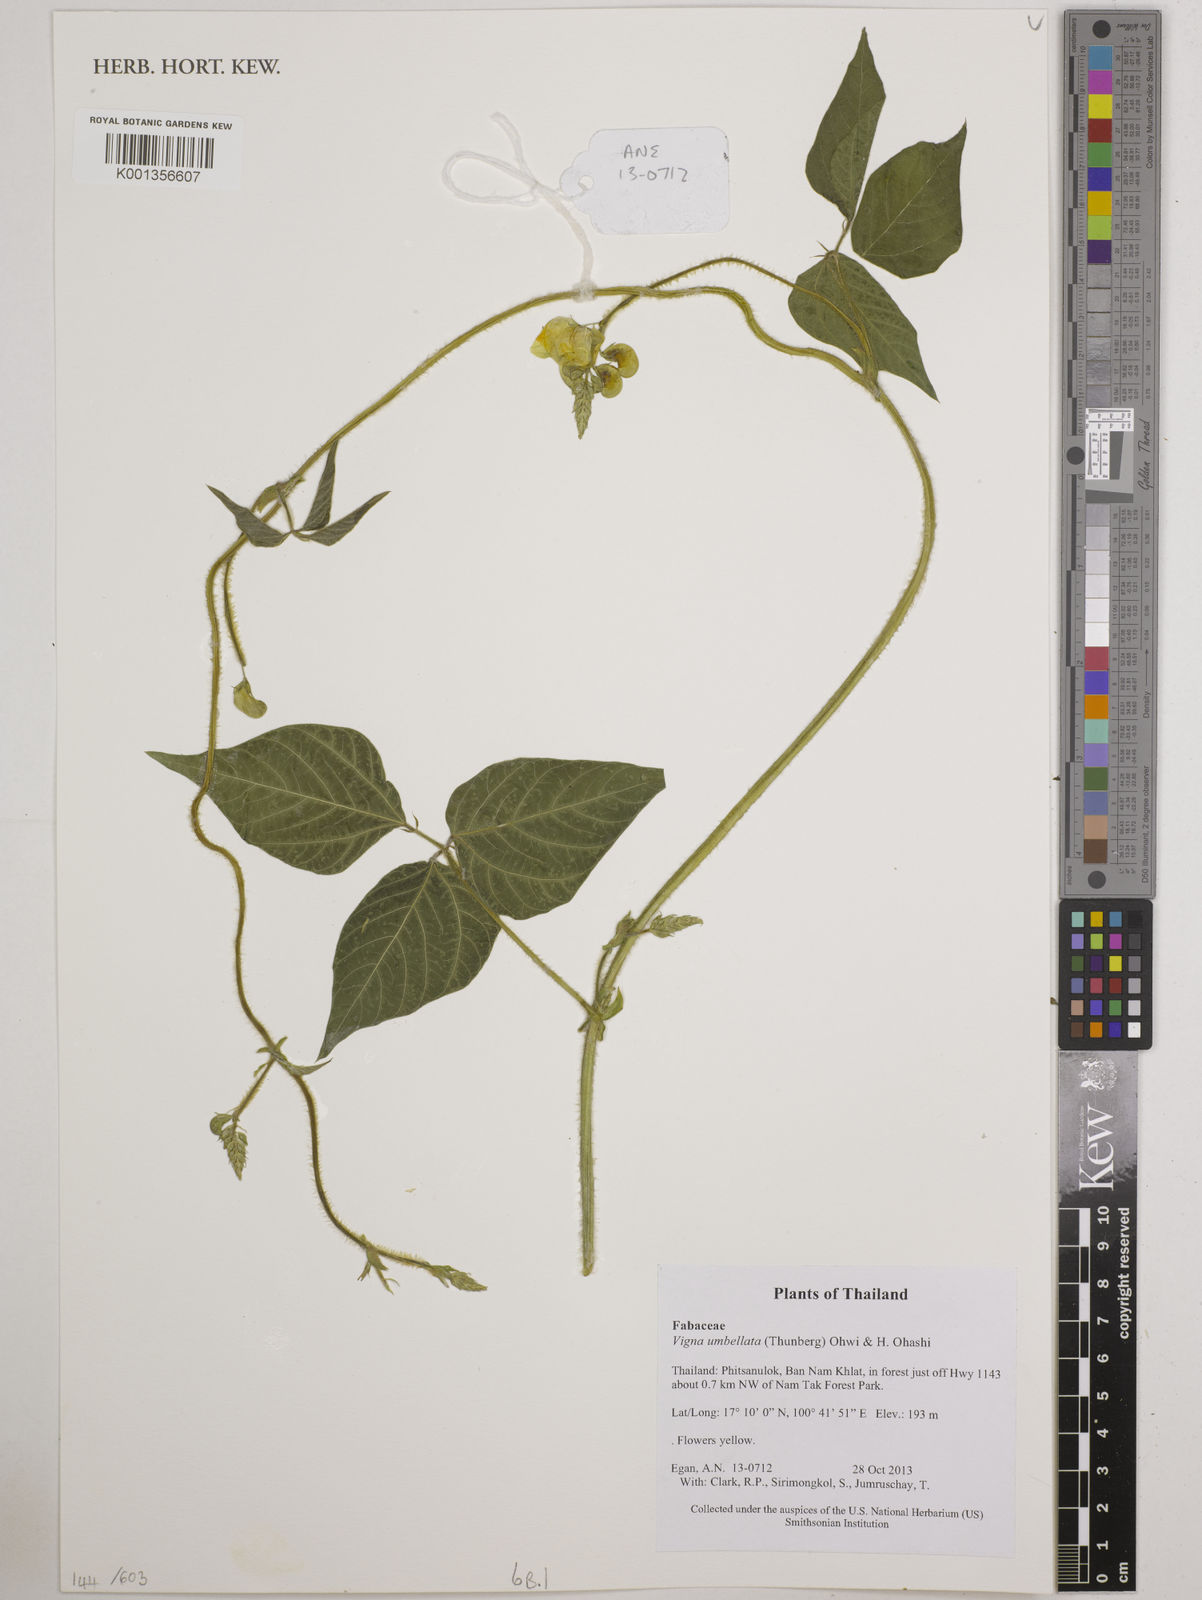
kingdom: Plantae
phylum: Tracheophyta
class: Magnoliopsida
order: Fabales
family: Fabaceae
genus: Vigna
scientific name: Vigna umbellata
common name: Oriental-bean
